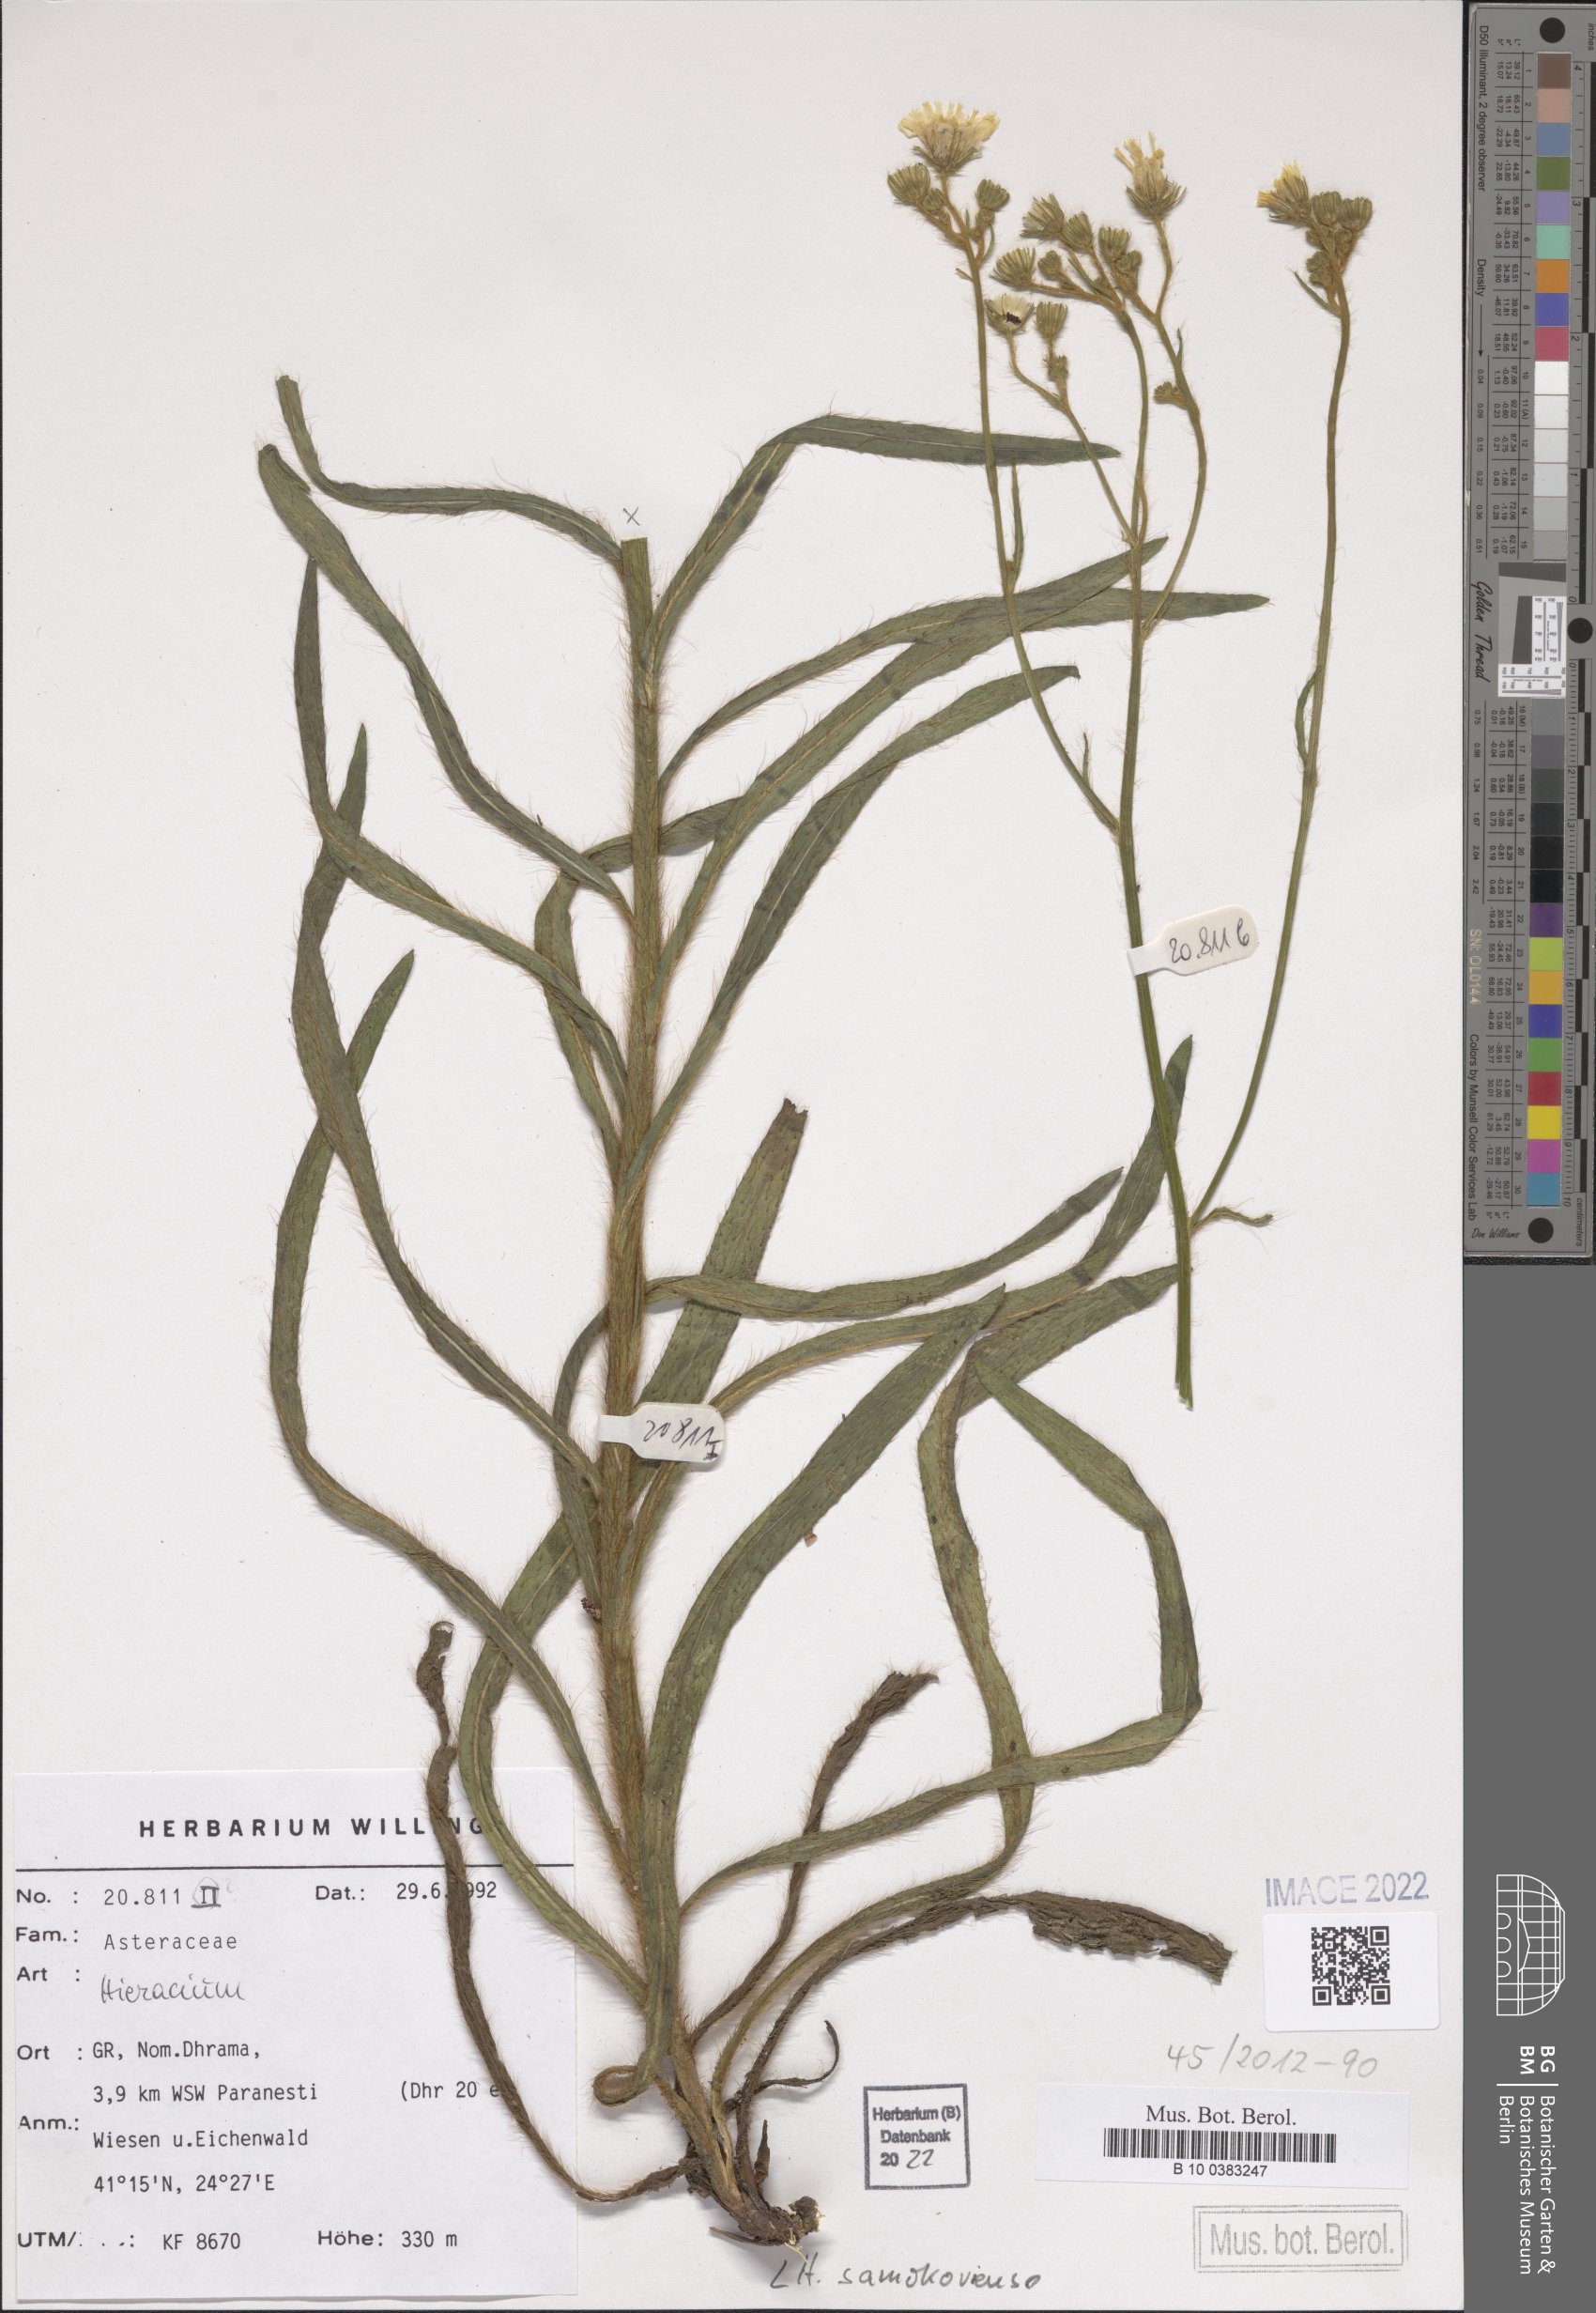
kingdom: Plantae
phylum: Tracheophyta
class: Magnoliopsida
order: Asterales
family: Asteraceae
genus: Pilosella
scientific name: Pilosella samokoviensis
